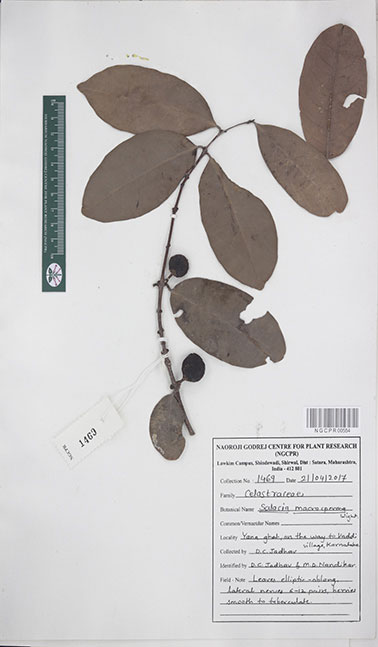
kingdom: Plantae
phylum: Tracheophyta
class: Magnoliopsida
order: Celastrales
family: Celastraceae
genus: Salacia
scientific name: Salacia macrosperma
